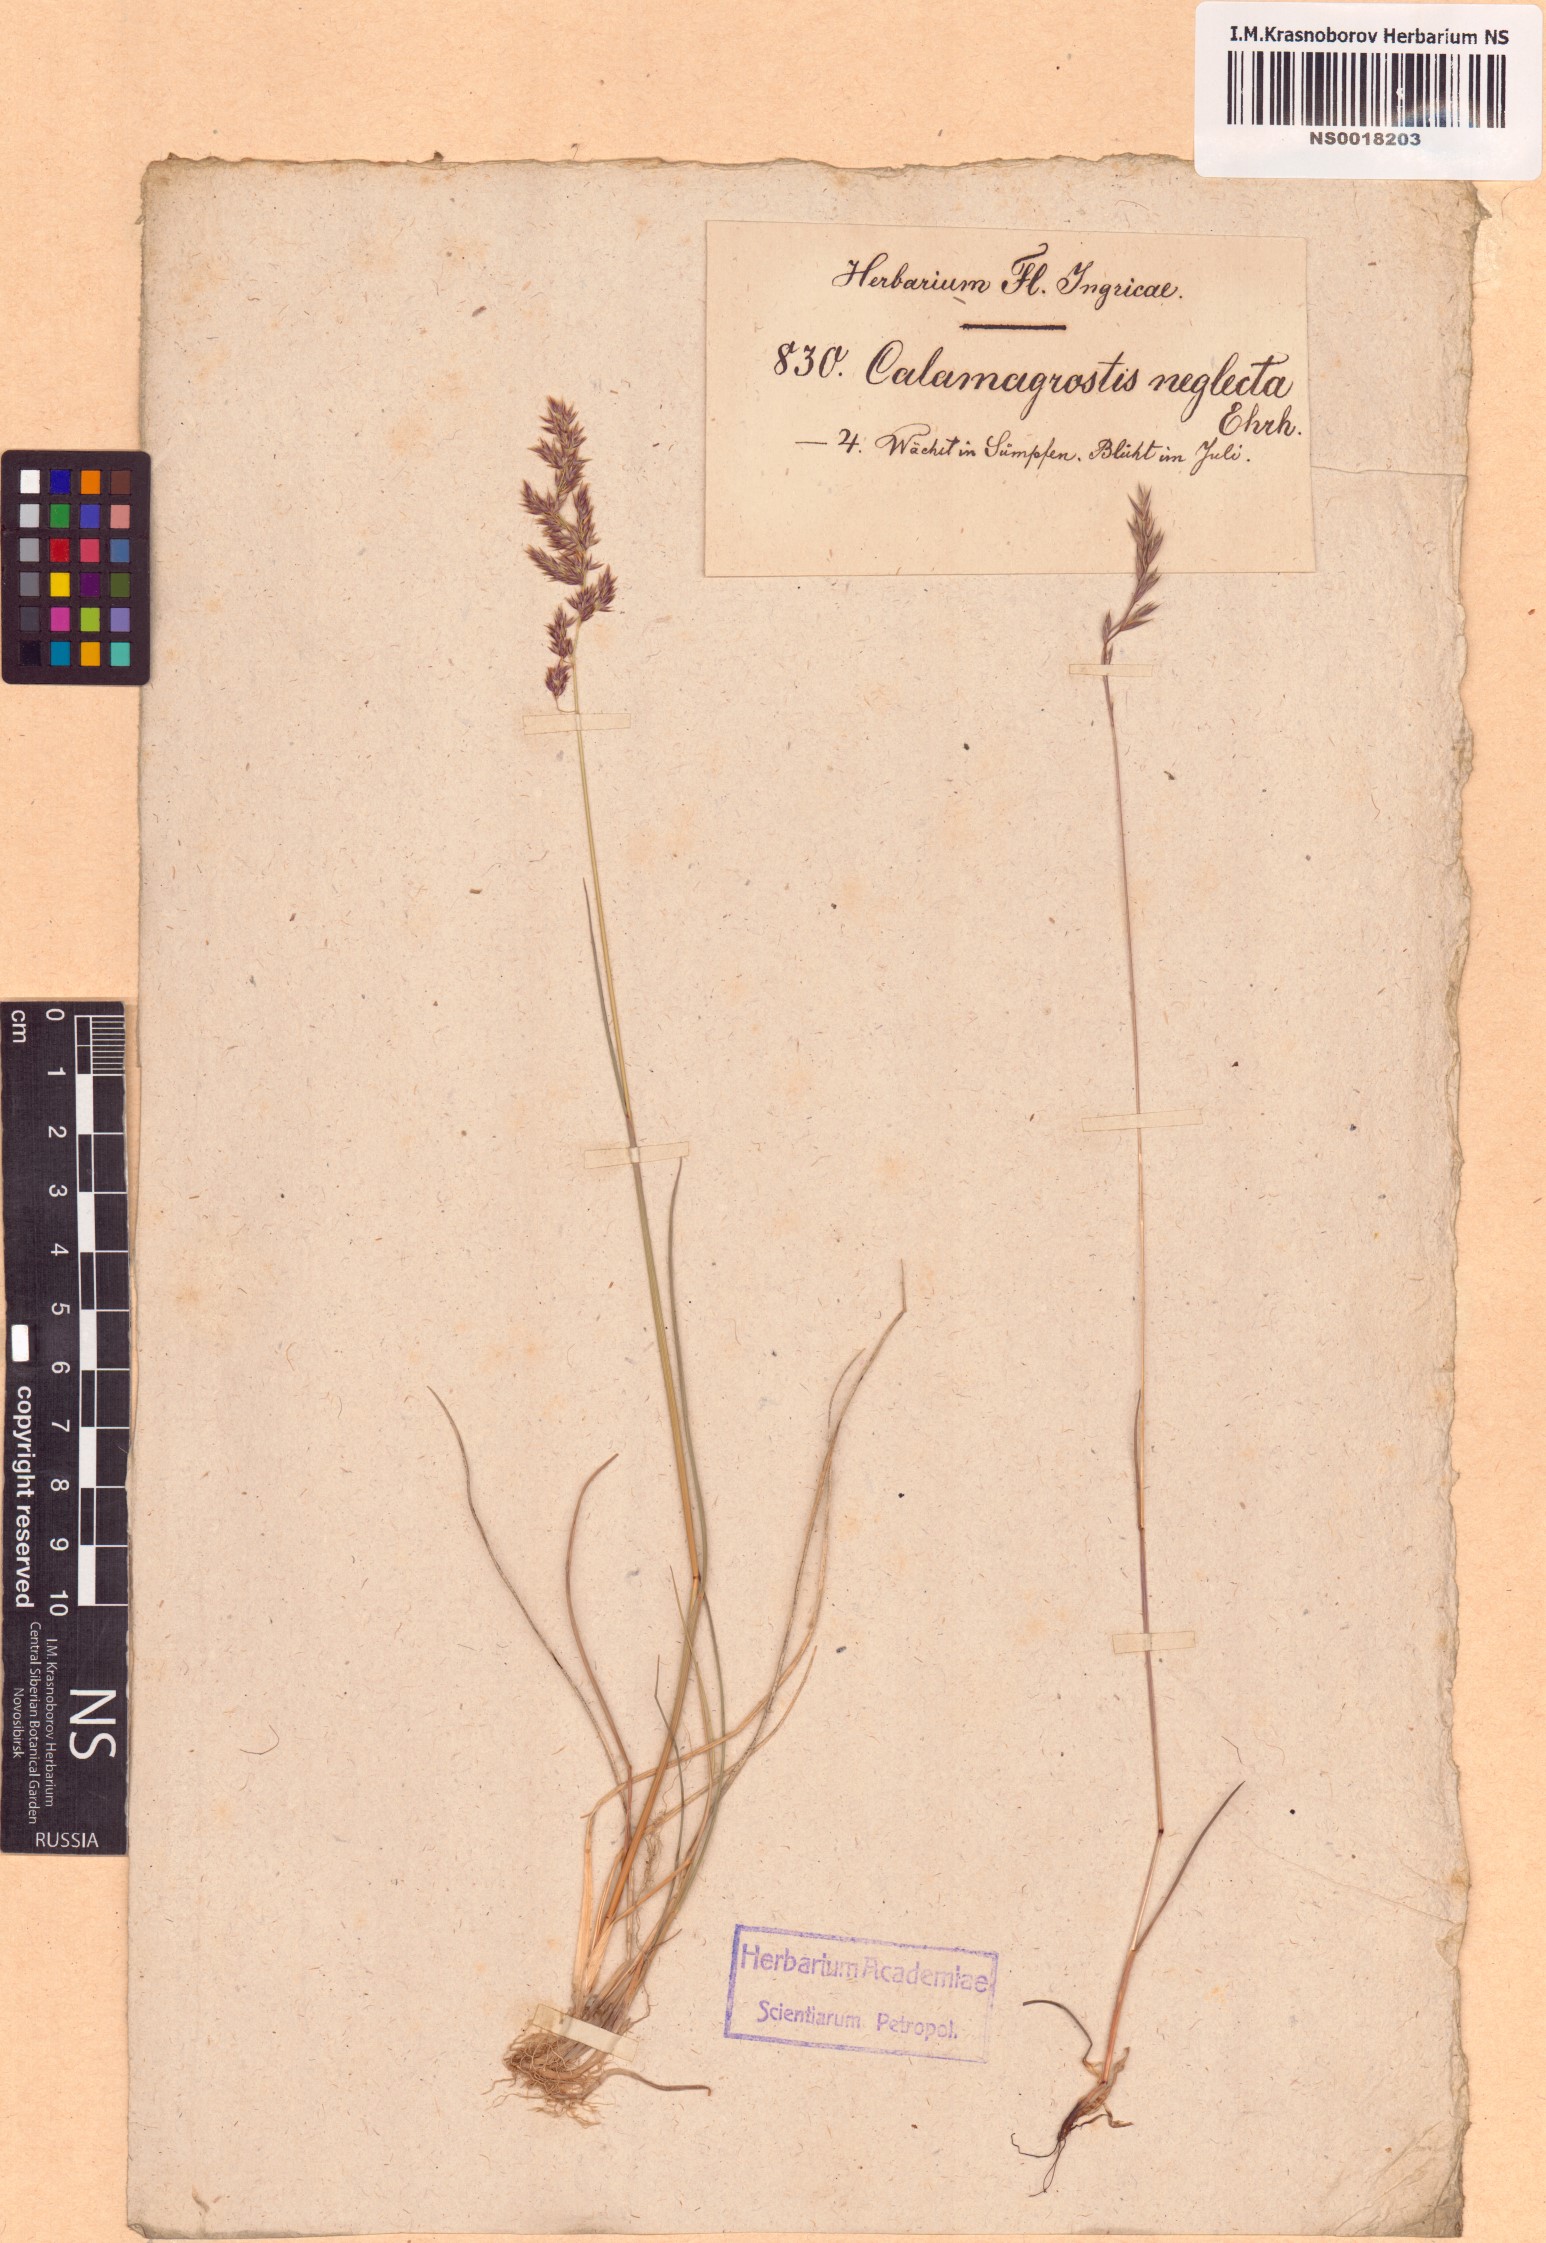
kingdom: Plantae
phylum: Tracheophyta
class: Liliopsida
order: Poales
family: Poaceae
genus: Achnatherum
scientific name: Achnatherum calamagrostis
